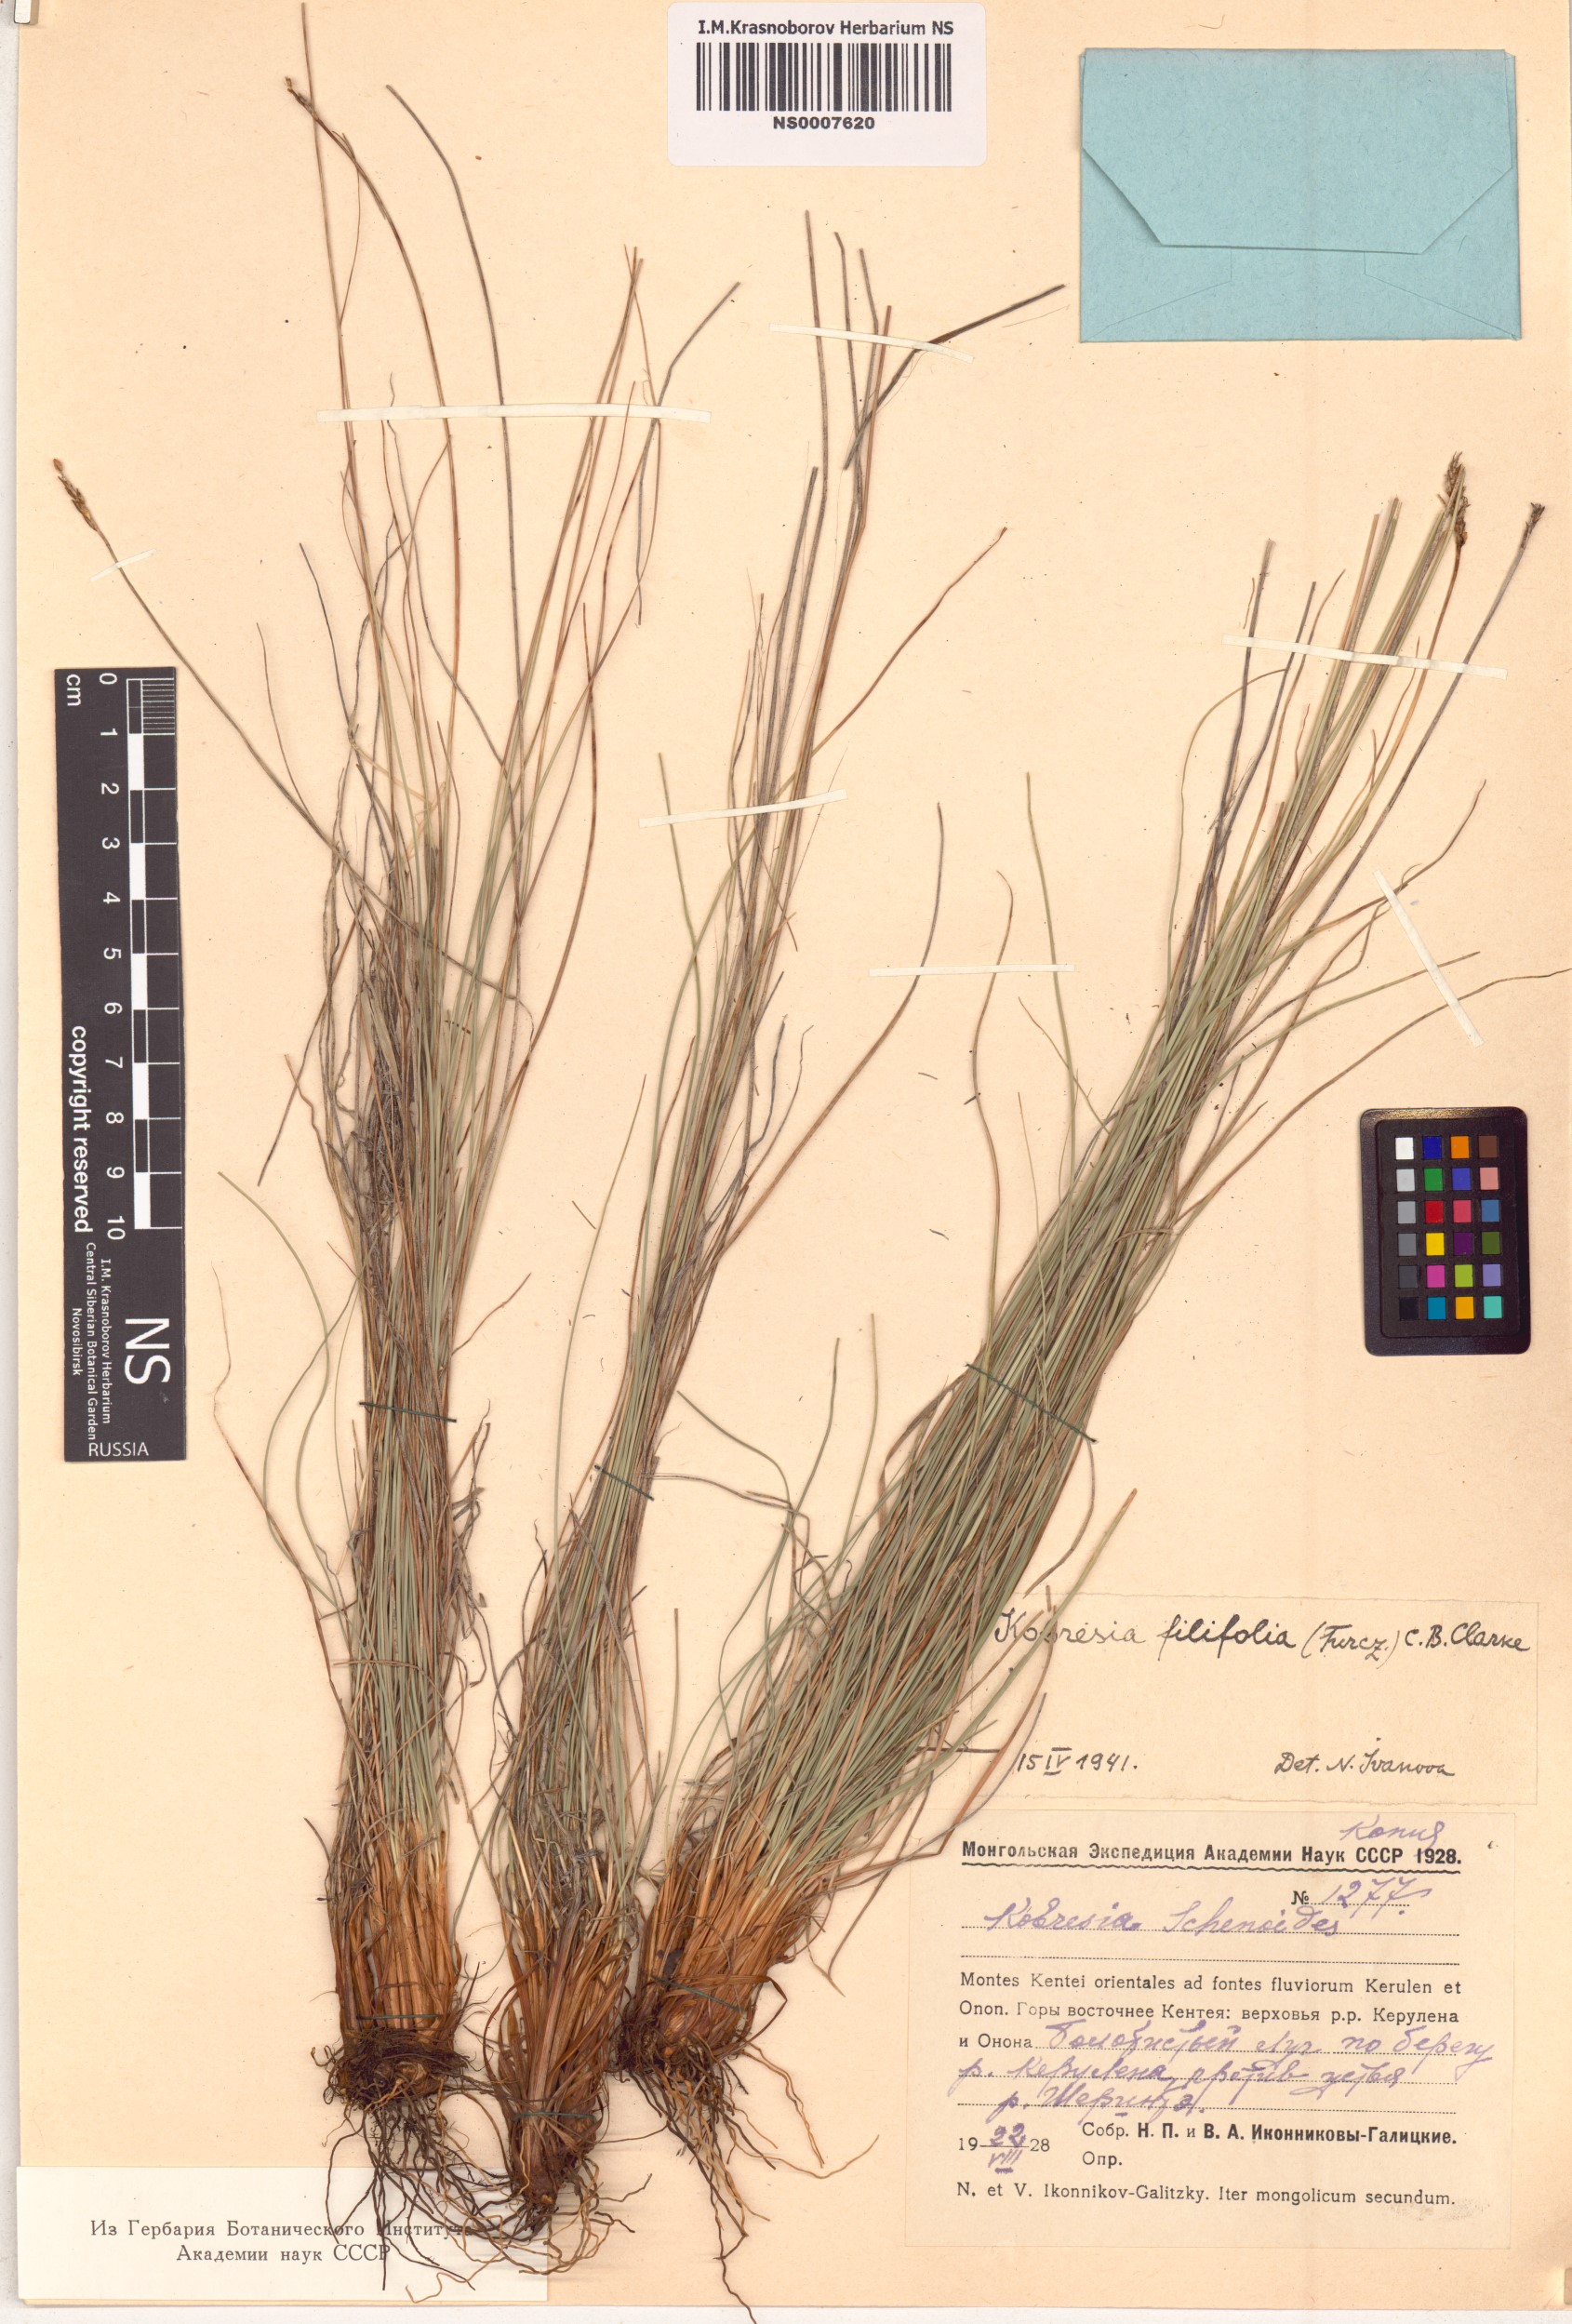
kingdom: Plantae
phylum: Tracheophyta
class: Liliopsida
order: Poales
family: Cyperaceae
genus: Carex
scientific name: Carex macroprophylla
